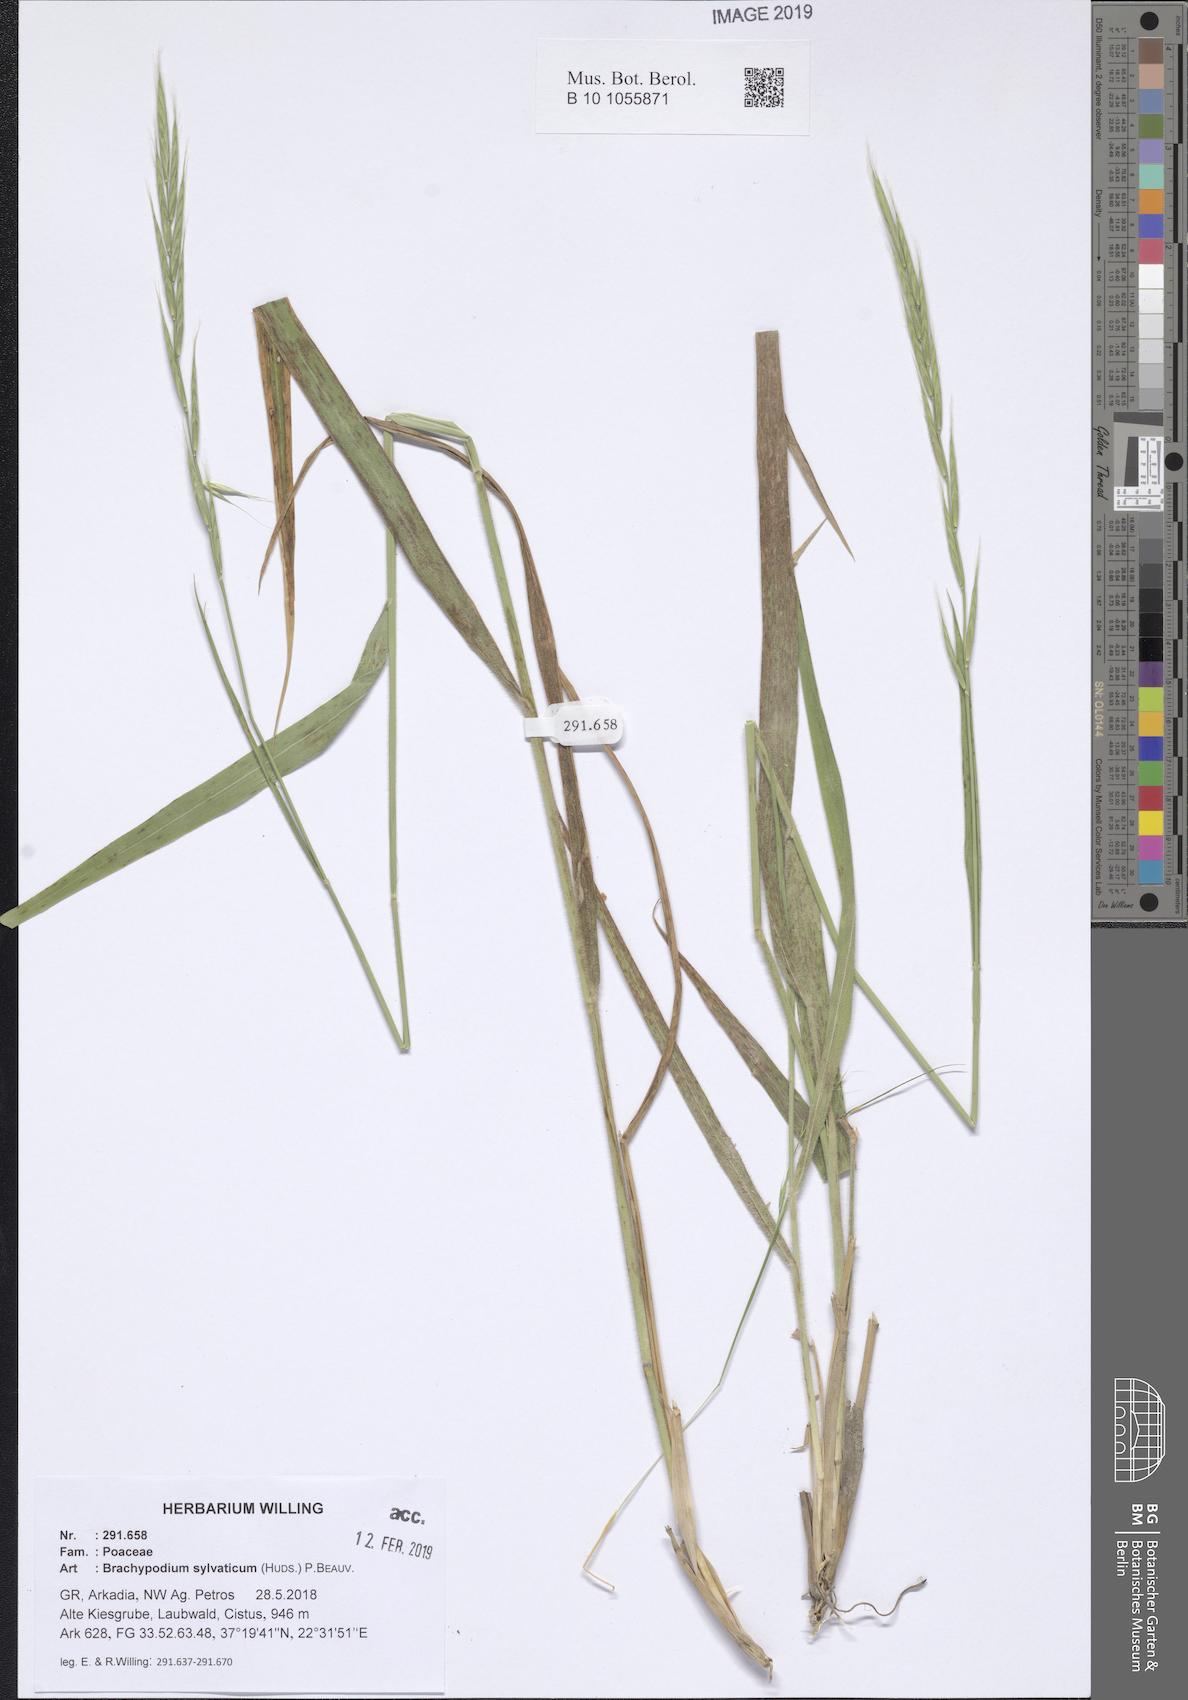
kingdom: Plantae
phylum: Tracheophyta
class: Liliopsida
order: Poales
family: Poaceae
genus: Brachypodium
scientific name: Brachypodium sylvaticum
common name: False-brome
